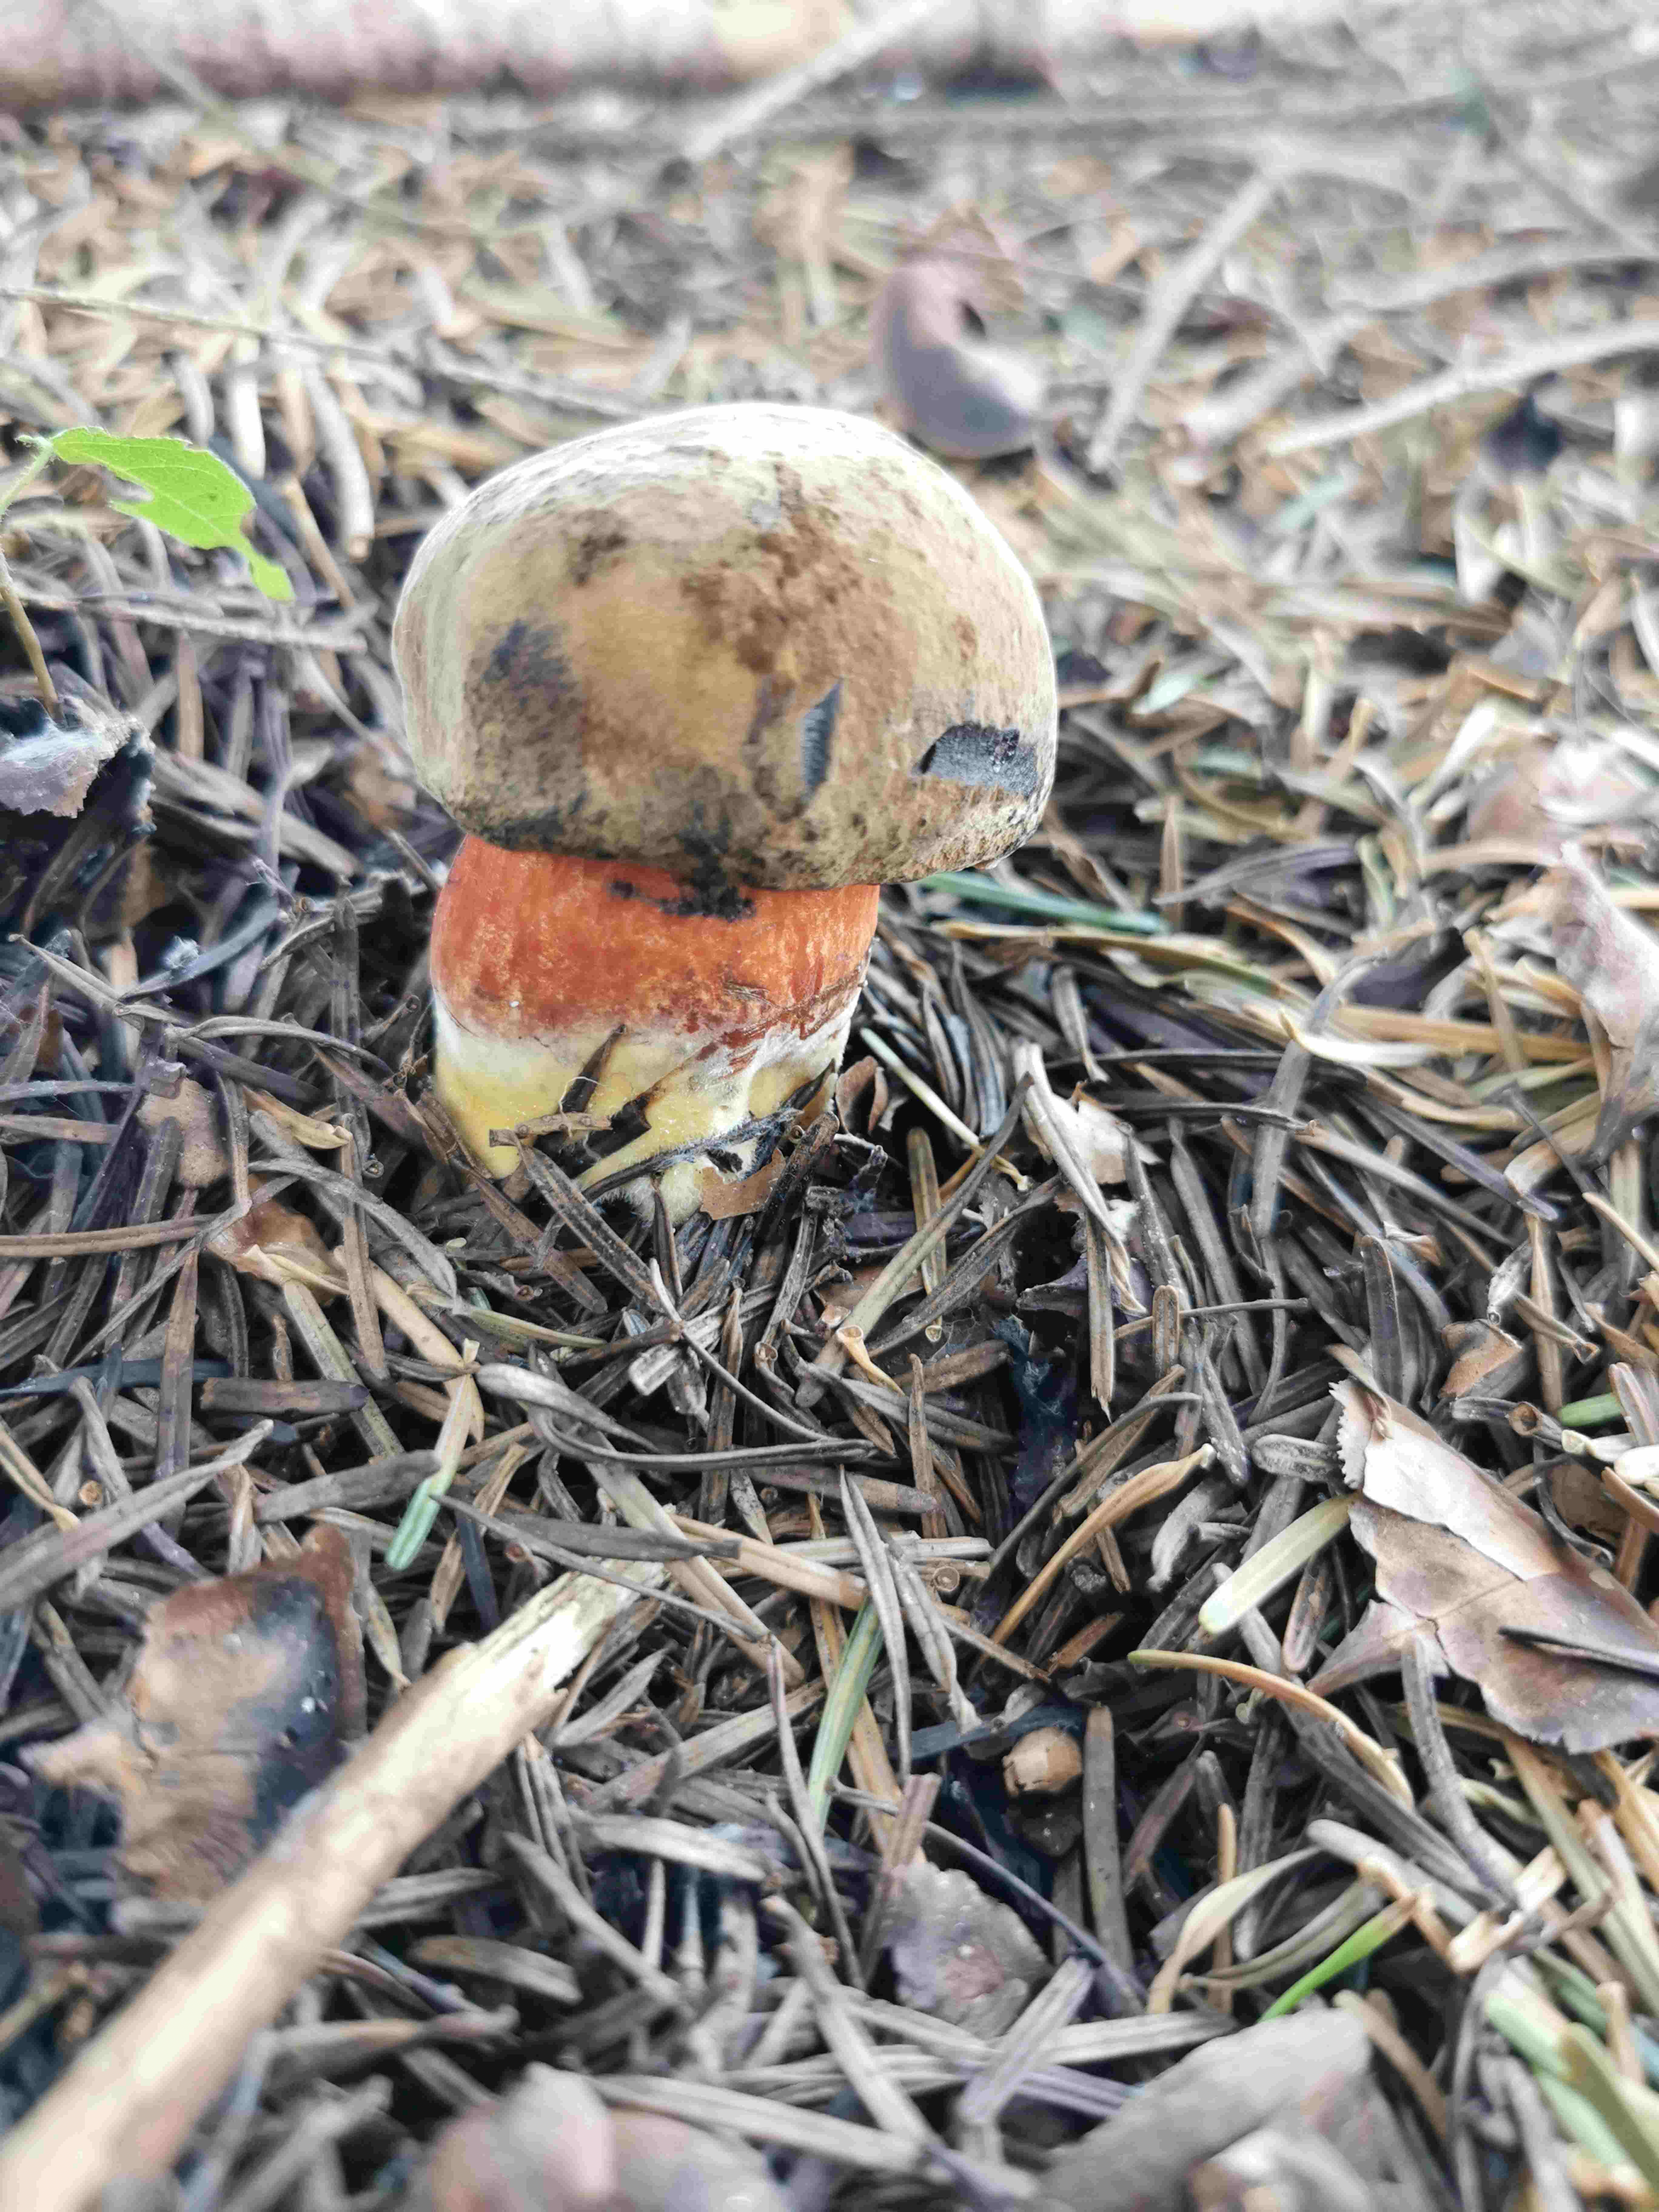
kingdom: Fungi
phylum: Basidiomycota
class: Agaricomycetes
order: Boletales
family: Boletaceae
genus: Neoboletus
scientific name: Neoboletus erythropus
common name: punktstokket indigorørhat
